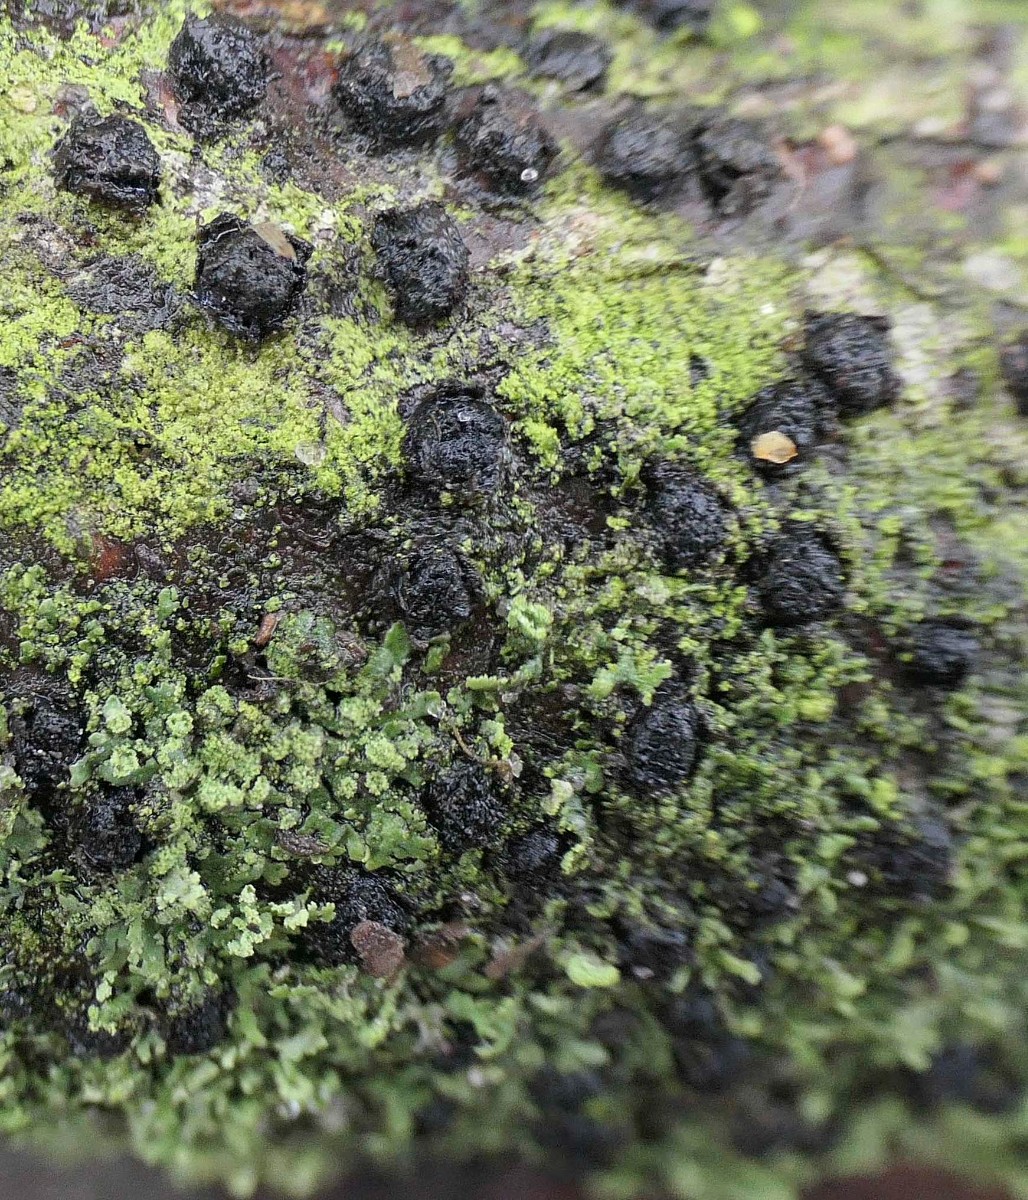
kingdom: Fungi
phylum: Ascomycota
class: Sordariomycetes
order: Xylariales
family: Diatrypaceae
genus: Diatrypella
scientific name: Diatrypella quercina
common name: ege-kulskorpe
